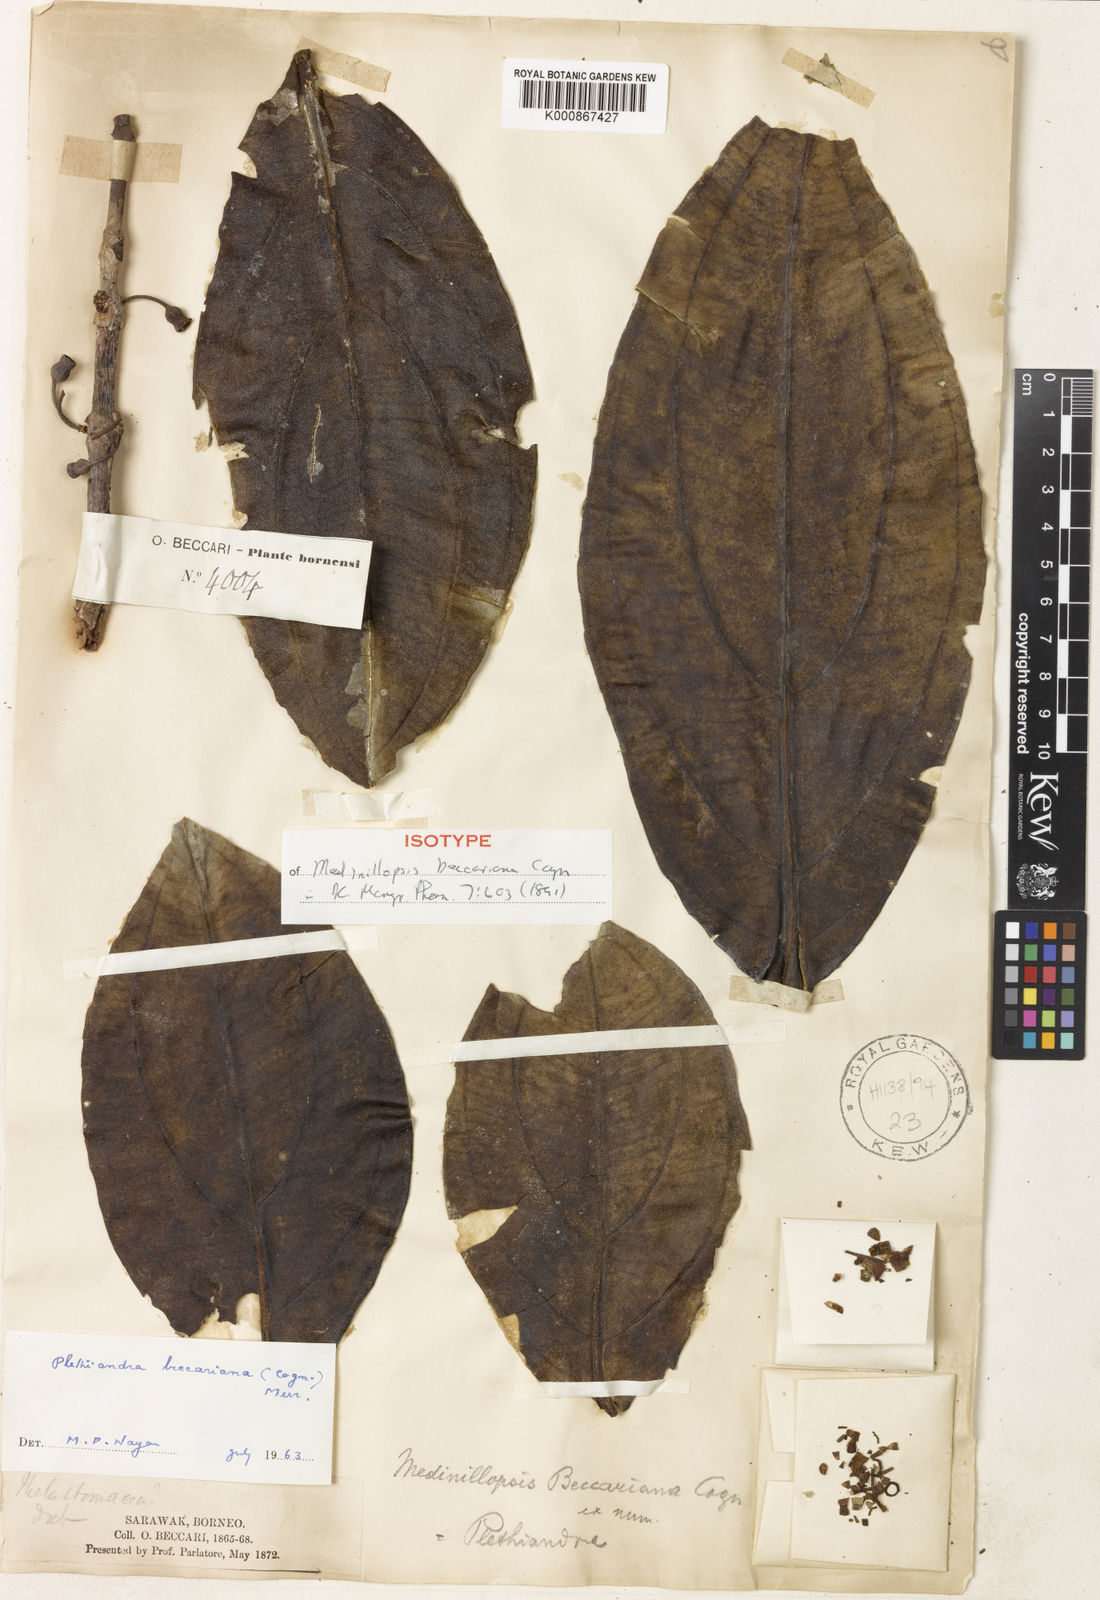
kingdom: Plantae
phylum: Tracheophyta
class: Magnoliopsida
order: Myrtales
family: Melastomataceae
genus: Plethiandra
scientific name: Plethiandra beccariana
